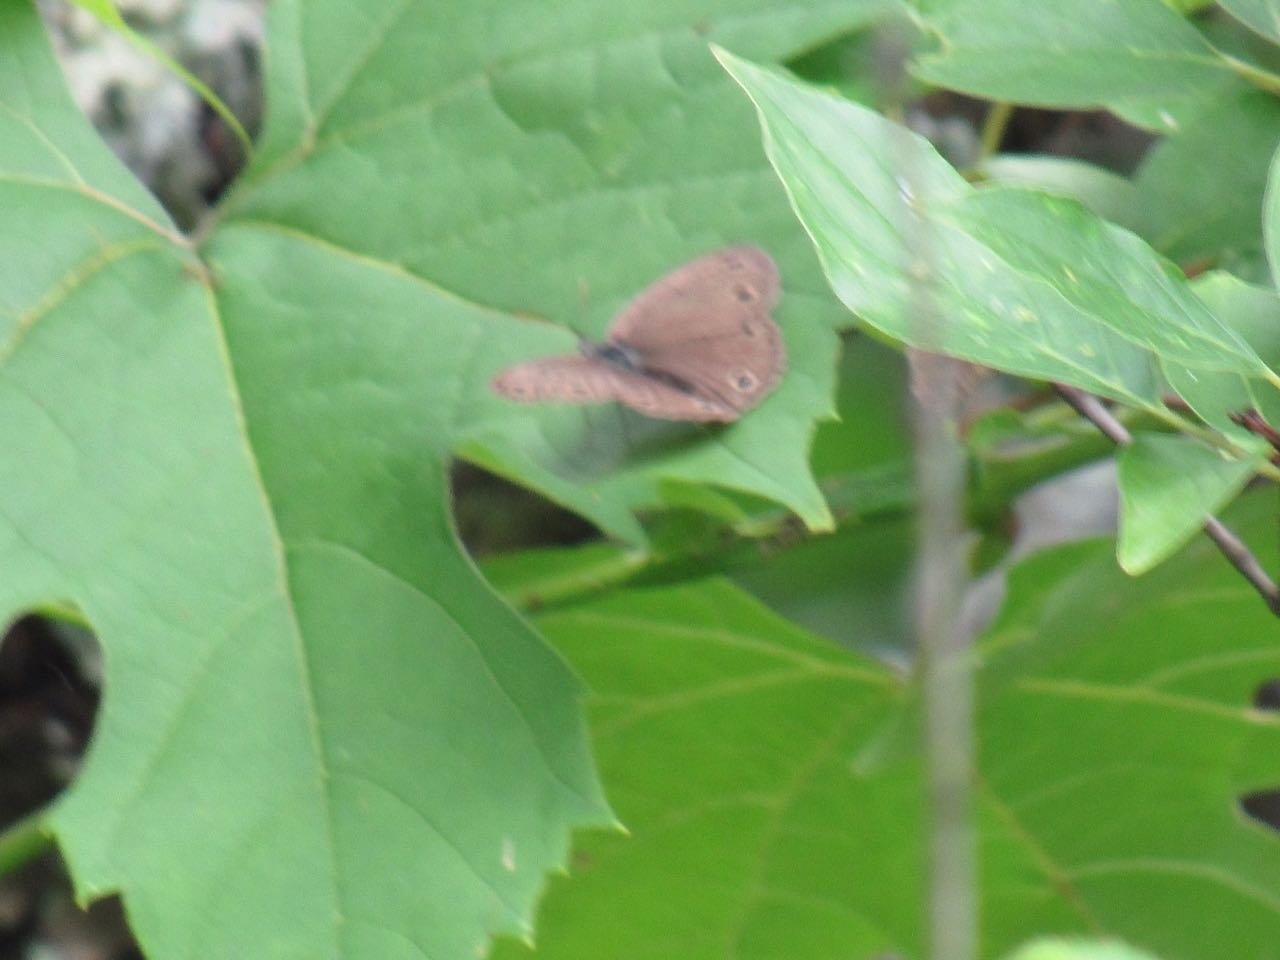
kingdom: Animalia
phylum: Arthropoda
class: Insecta
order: Lepidoptera
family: Nymphalidae
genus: Euptychia
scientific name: Euptychia cymela
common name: Little Wood Satyr
